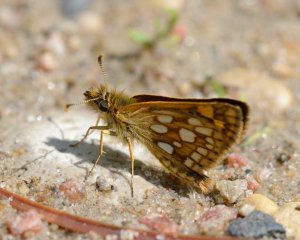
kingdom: Animalia
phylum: Arthropoda
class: Insecta
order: Lepidoptera
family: Hesperiidae
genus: Carterocephalus
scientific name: Carterocephalus palaemon
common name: Chequered Skipper
